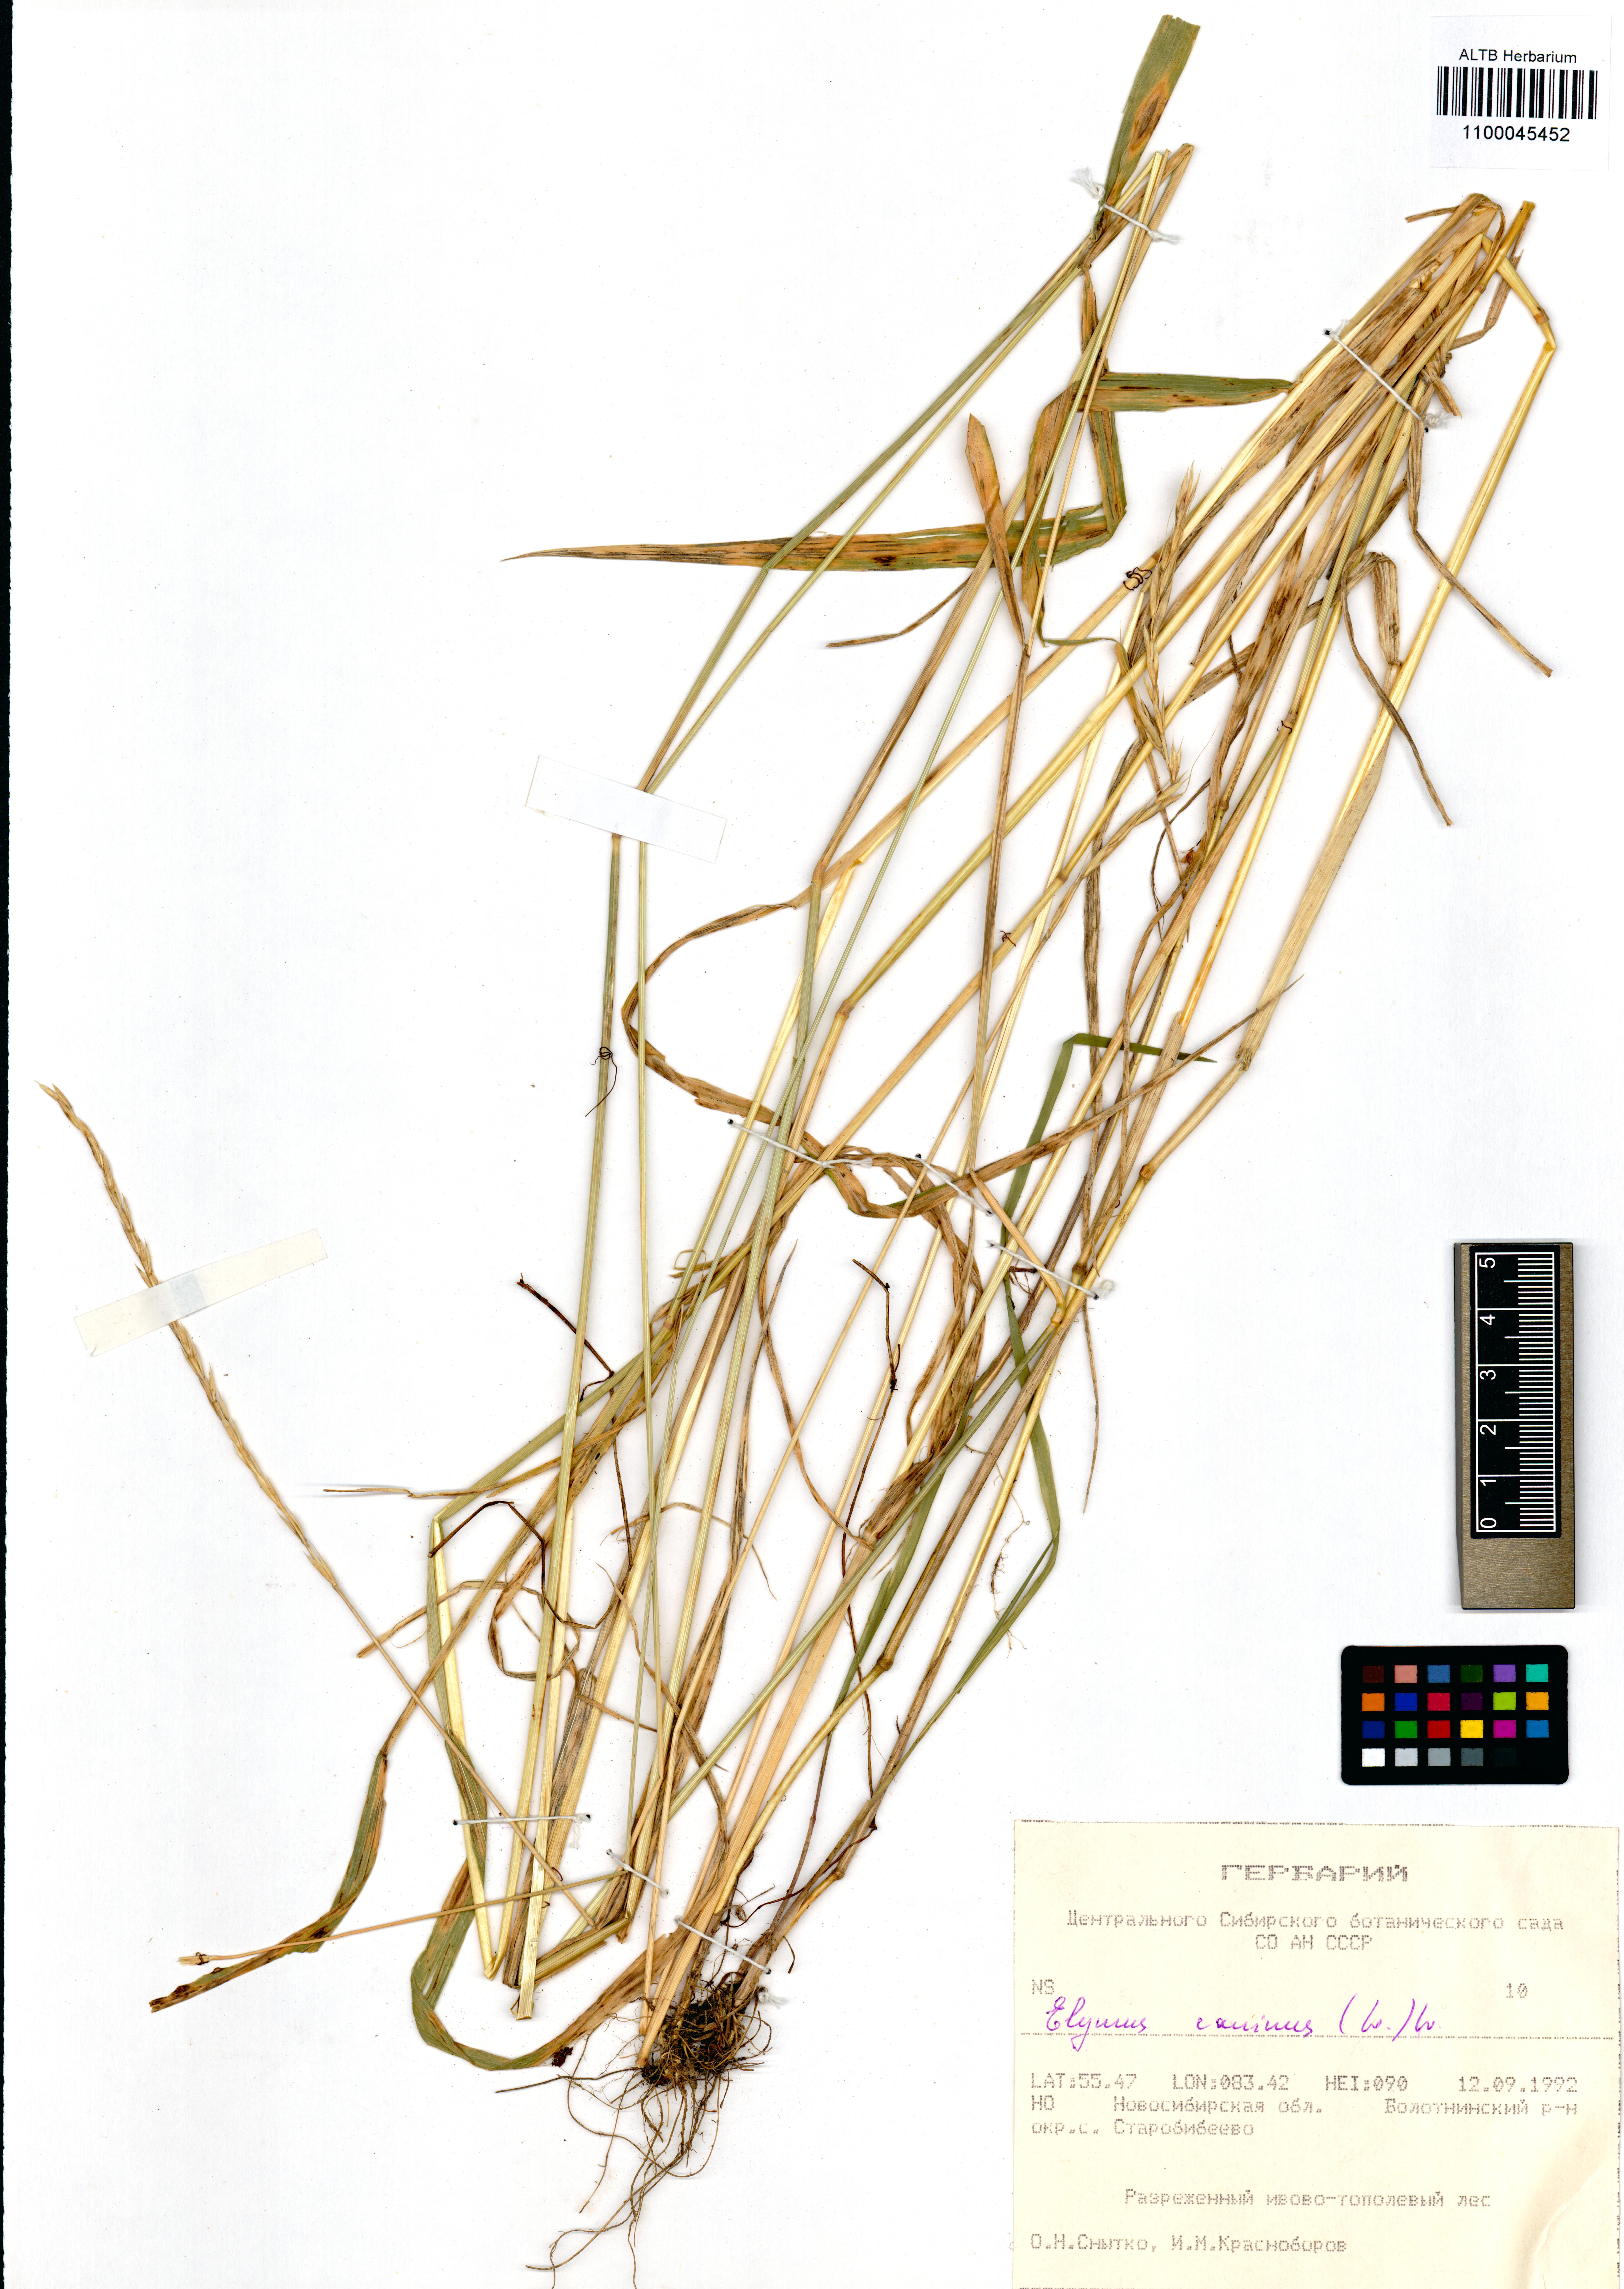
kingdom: Plantae
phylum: Tracheophyta
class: Liliopsida
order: Poales
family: Poaceae
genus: Elymus
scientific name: Elymus caninus
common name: Bearded couch
